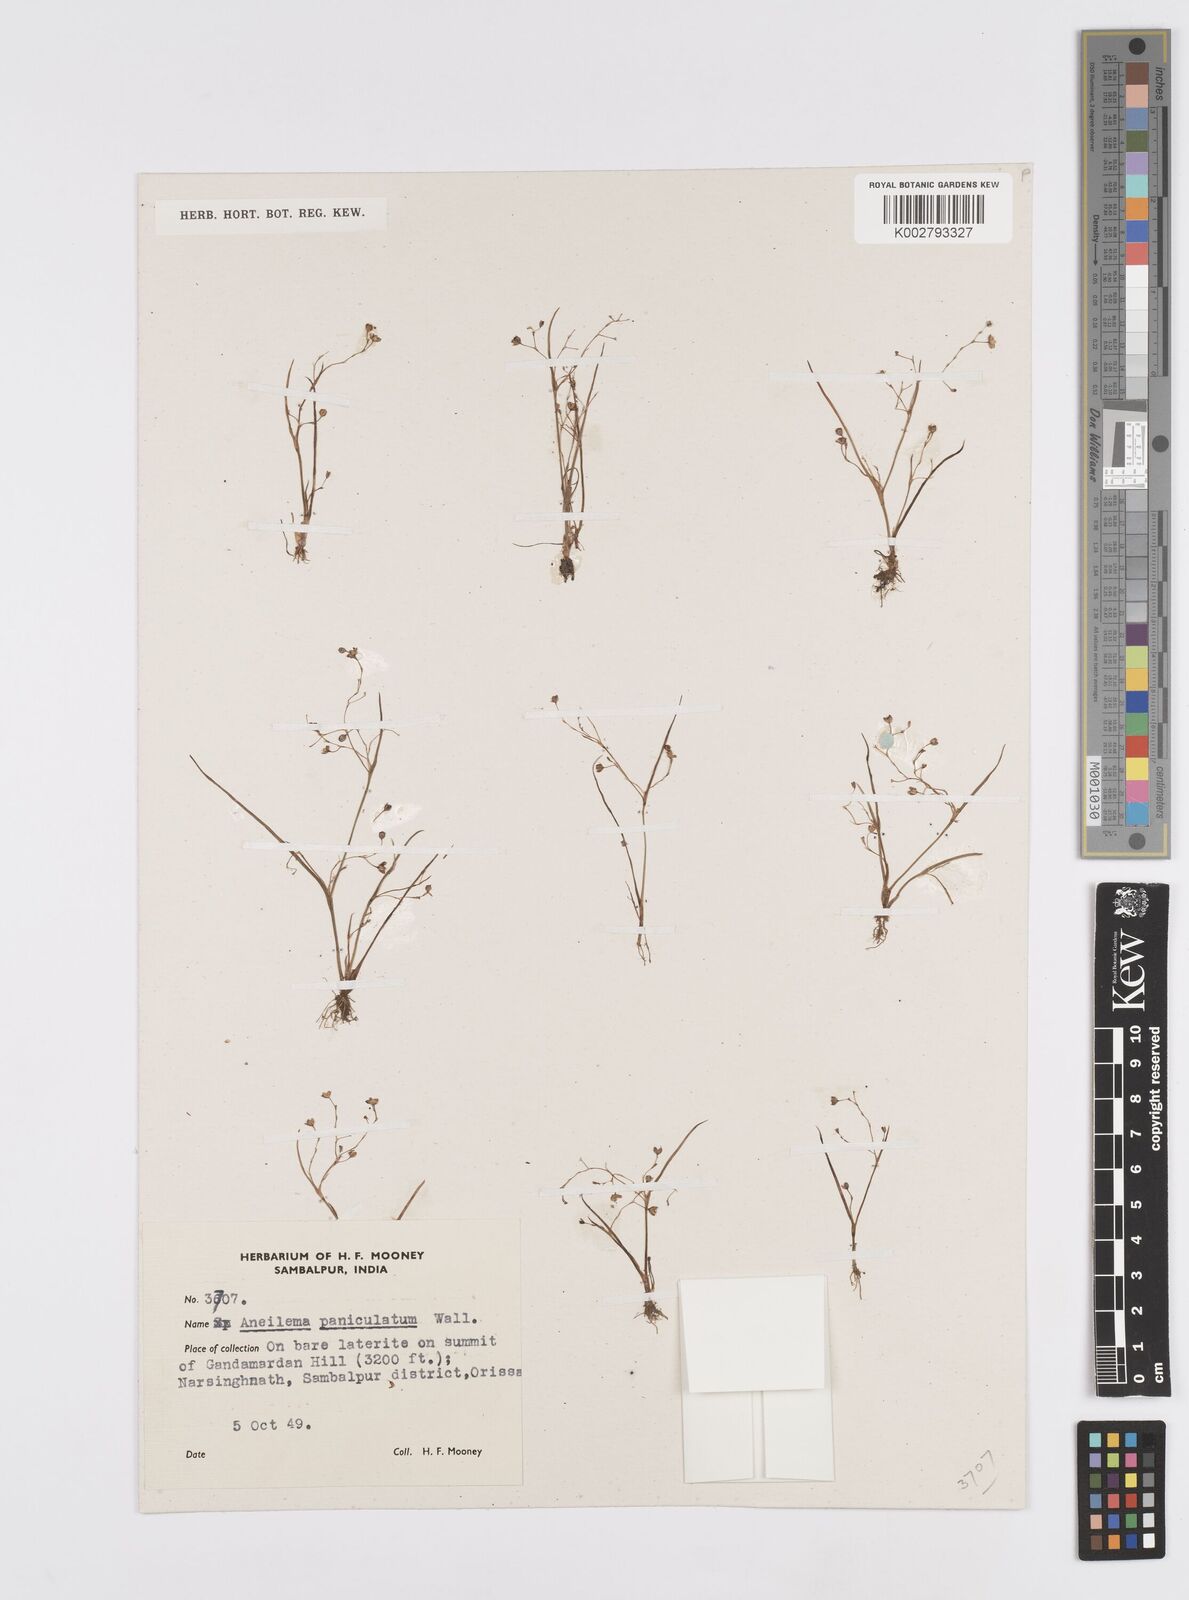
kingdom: Plantae
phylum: Tracheophyta
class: Liliopsida
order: Commelinales
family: Commelinaceae
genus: Murdannia
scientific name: Murdannia semiteres
